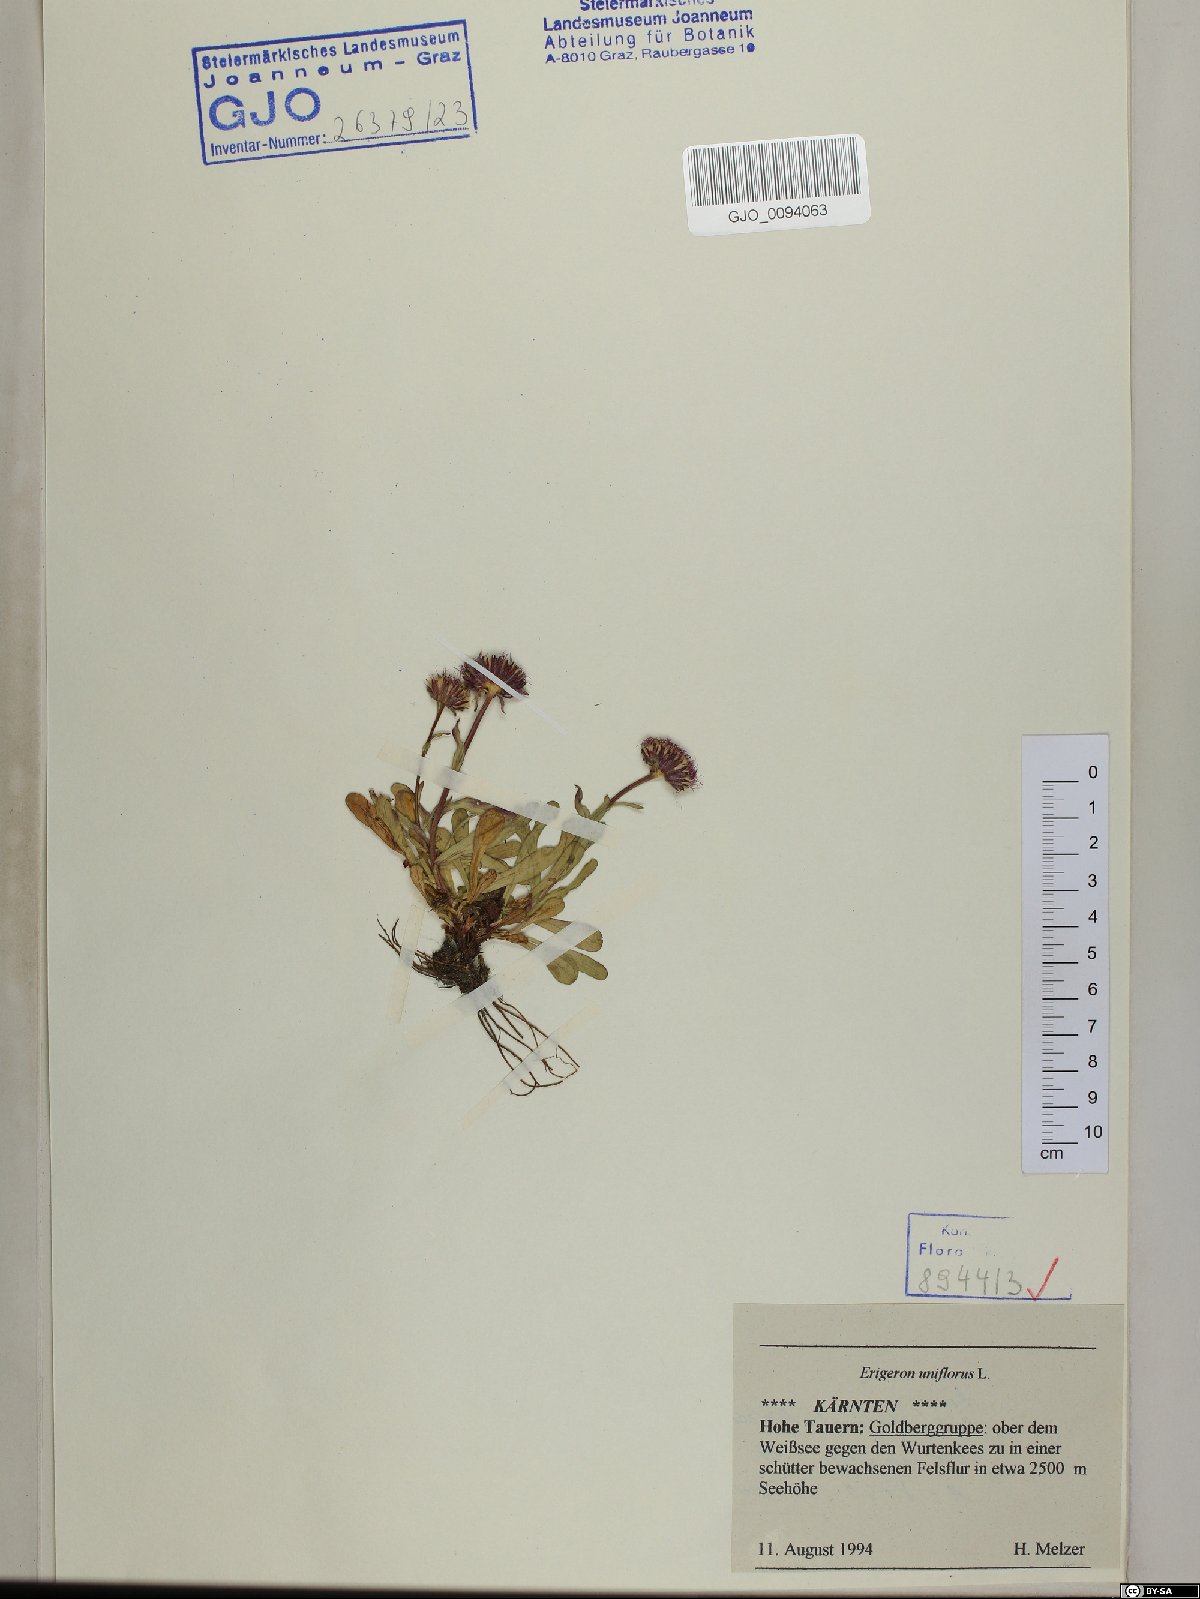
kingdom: Plantae
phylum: Tracheophyta
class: Magnoliopsida
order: Asterales
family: Asteraceae
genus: Erigeron
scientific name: Erigeron uniflorus
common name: Northern daisy
